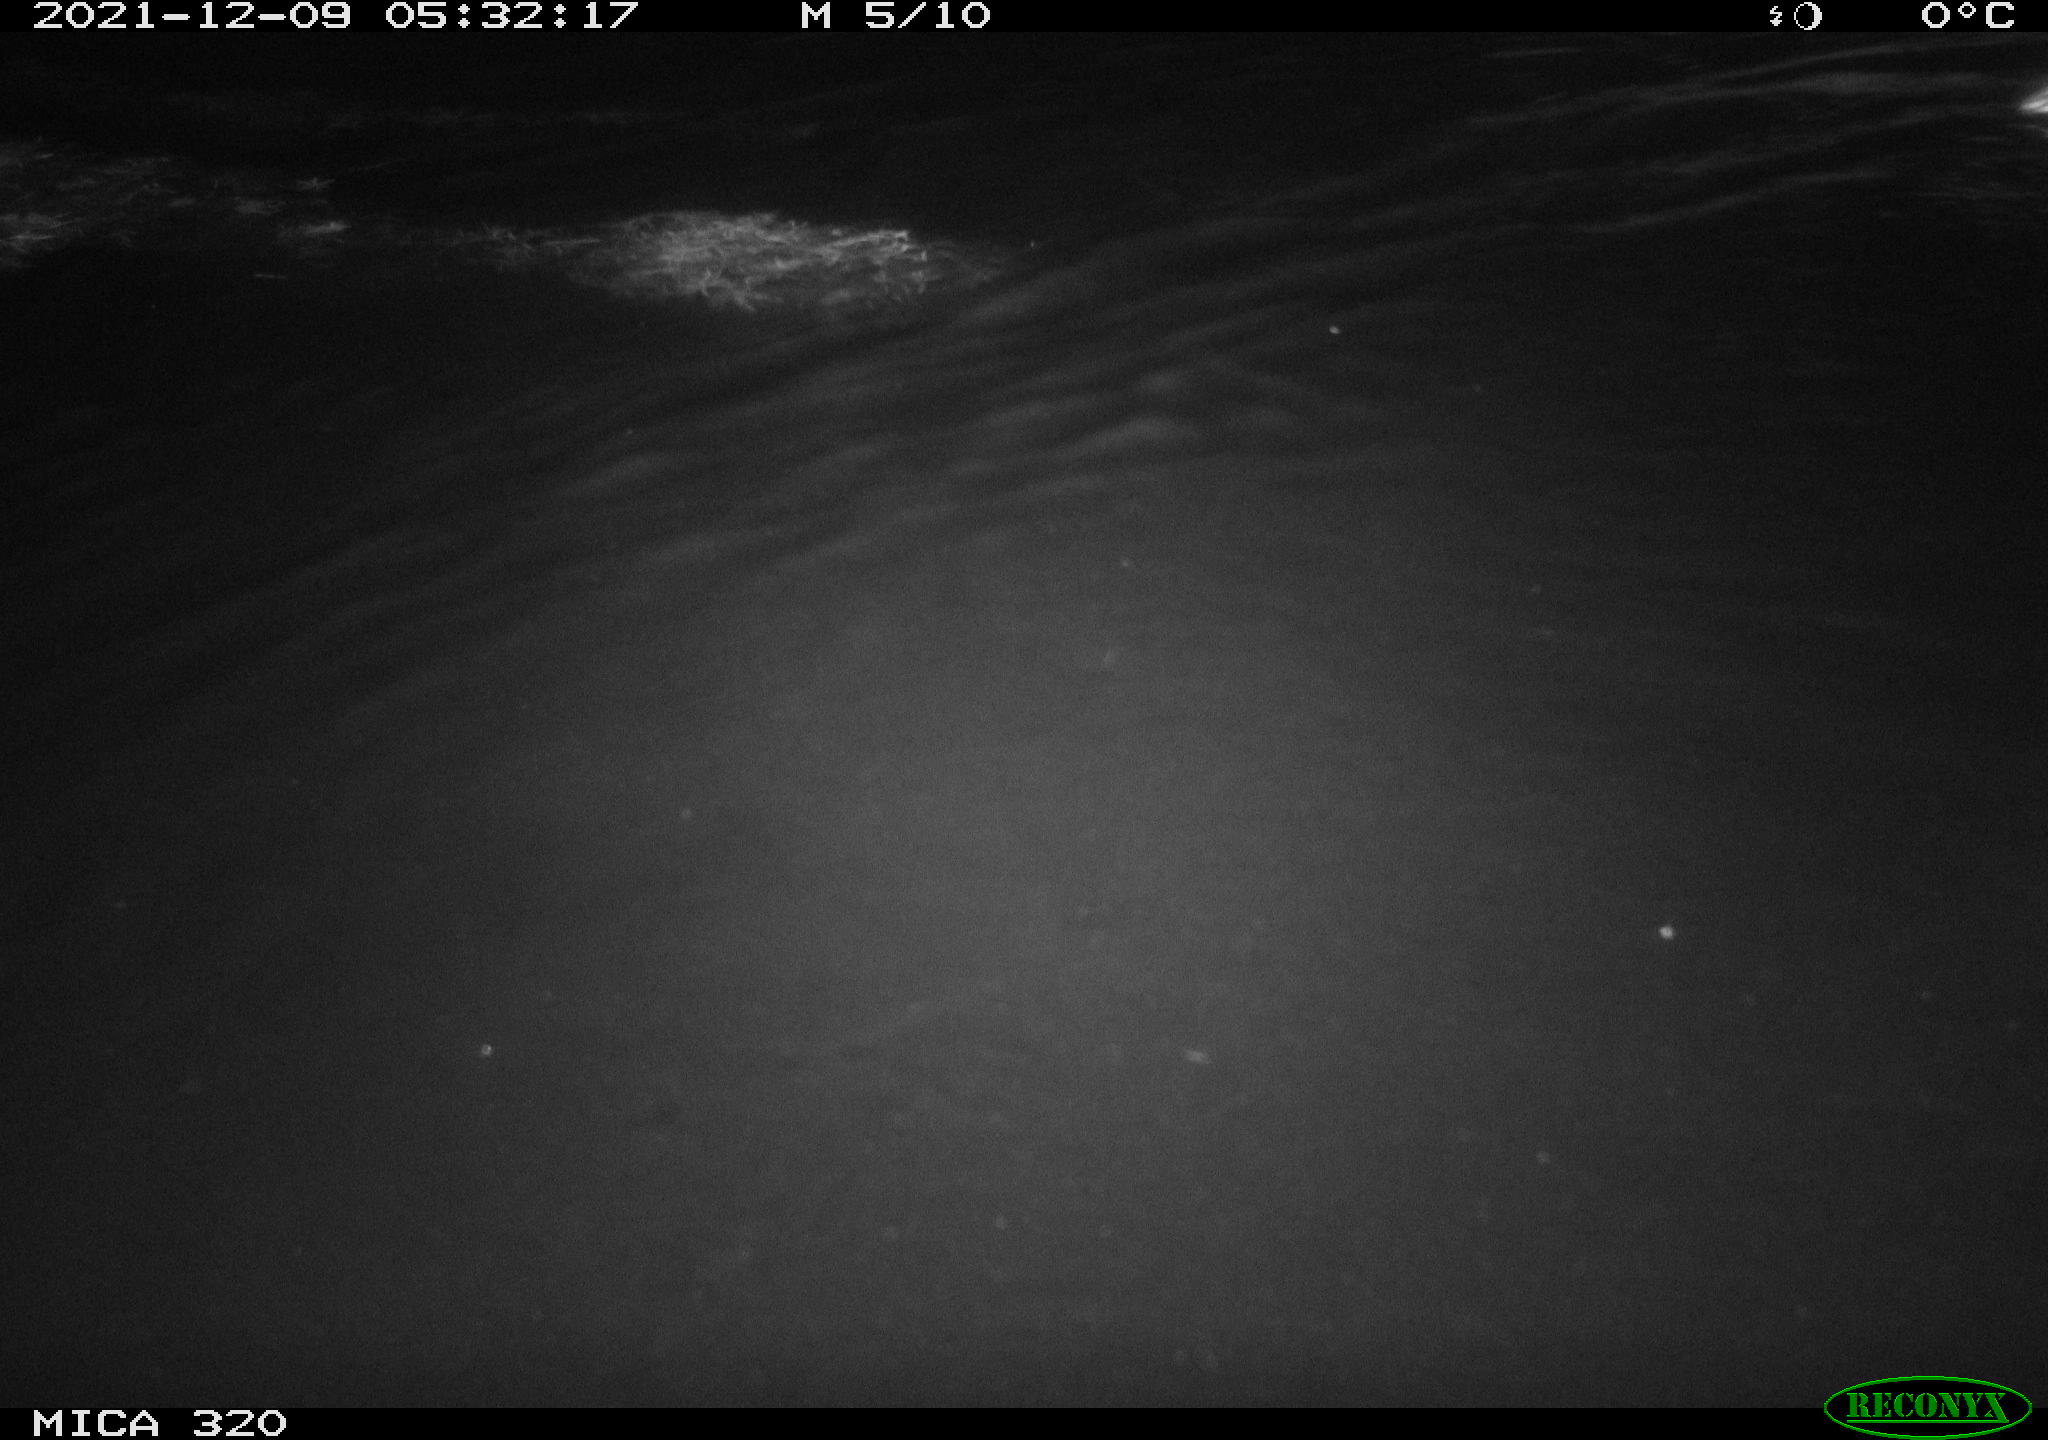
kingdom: Animalia
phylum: Chordata
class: Aves
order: Anseriformes
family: Anatidae
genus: Anas
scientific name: Anas platyrhynchos
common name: Mallard
